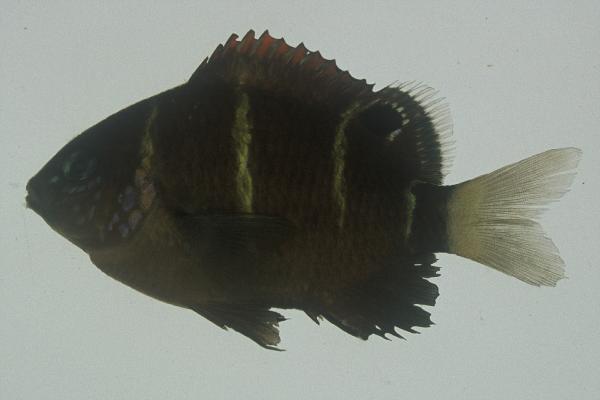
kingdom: Animalia
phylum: Chordata
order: Perciformes
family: Pomacentridae
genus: Plectroglyphidodon
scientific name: Plectroglyphidodon phoenixensis
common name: Phoenix damsel
